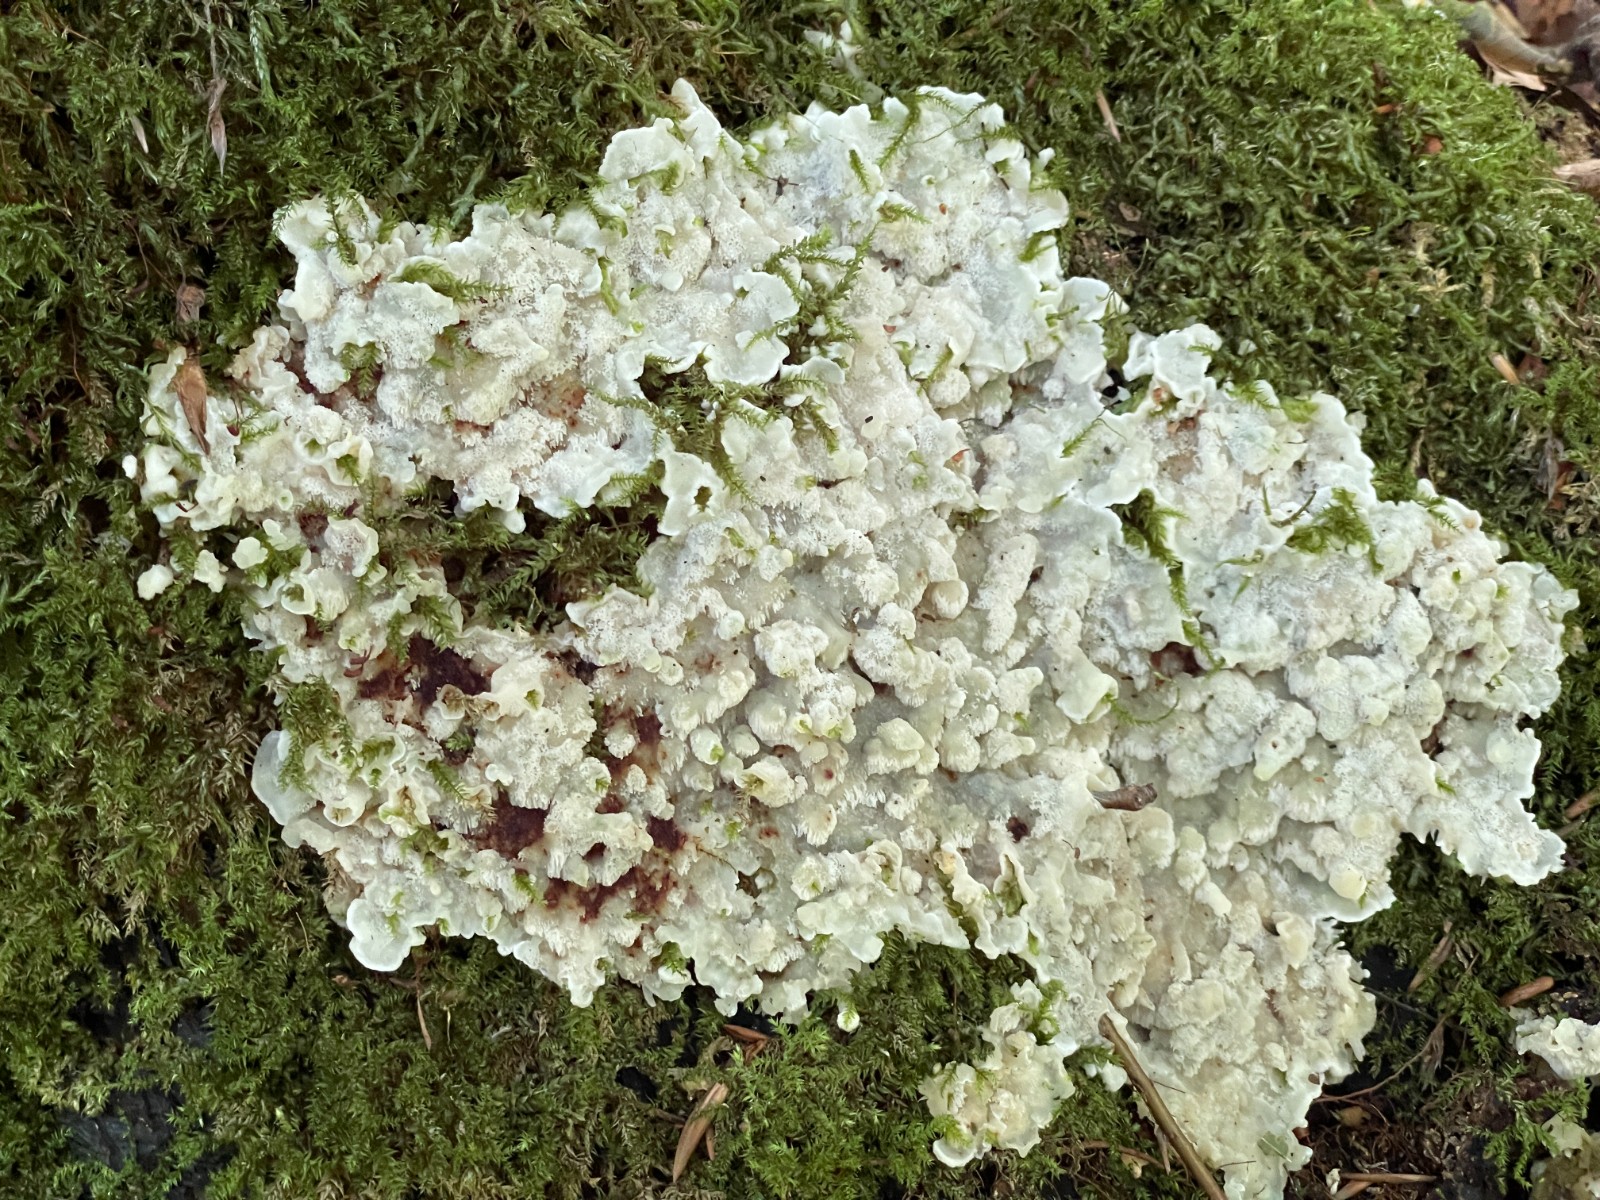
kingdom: Fungi
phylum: Basidiomycota
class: Agaricomycetes
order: Polyporales
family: Meruliaceae
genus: Physisporinus
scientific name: Physisporinus vitreus
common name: mastesvamp
